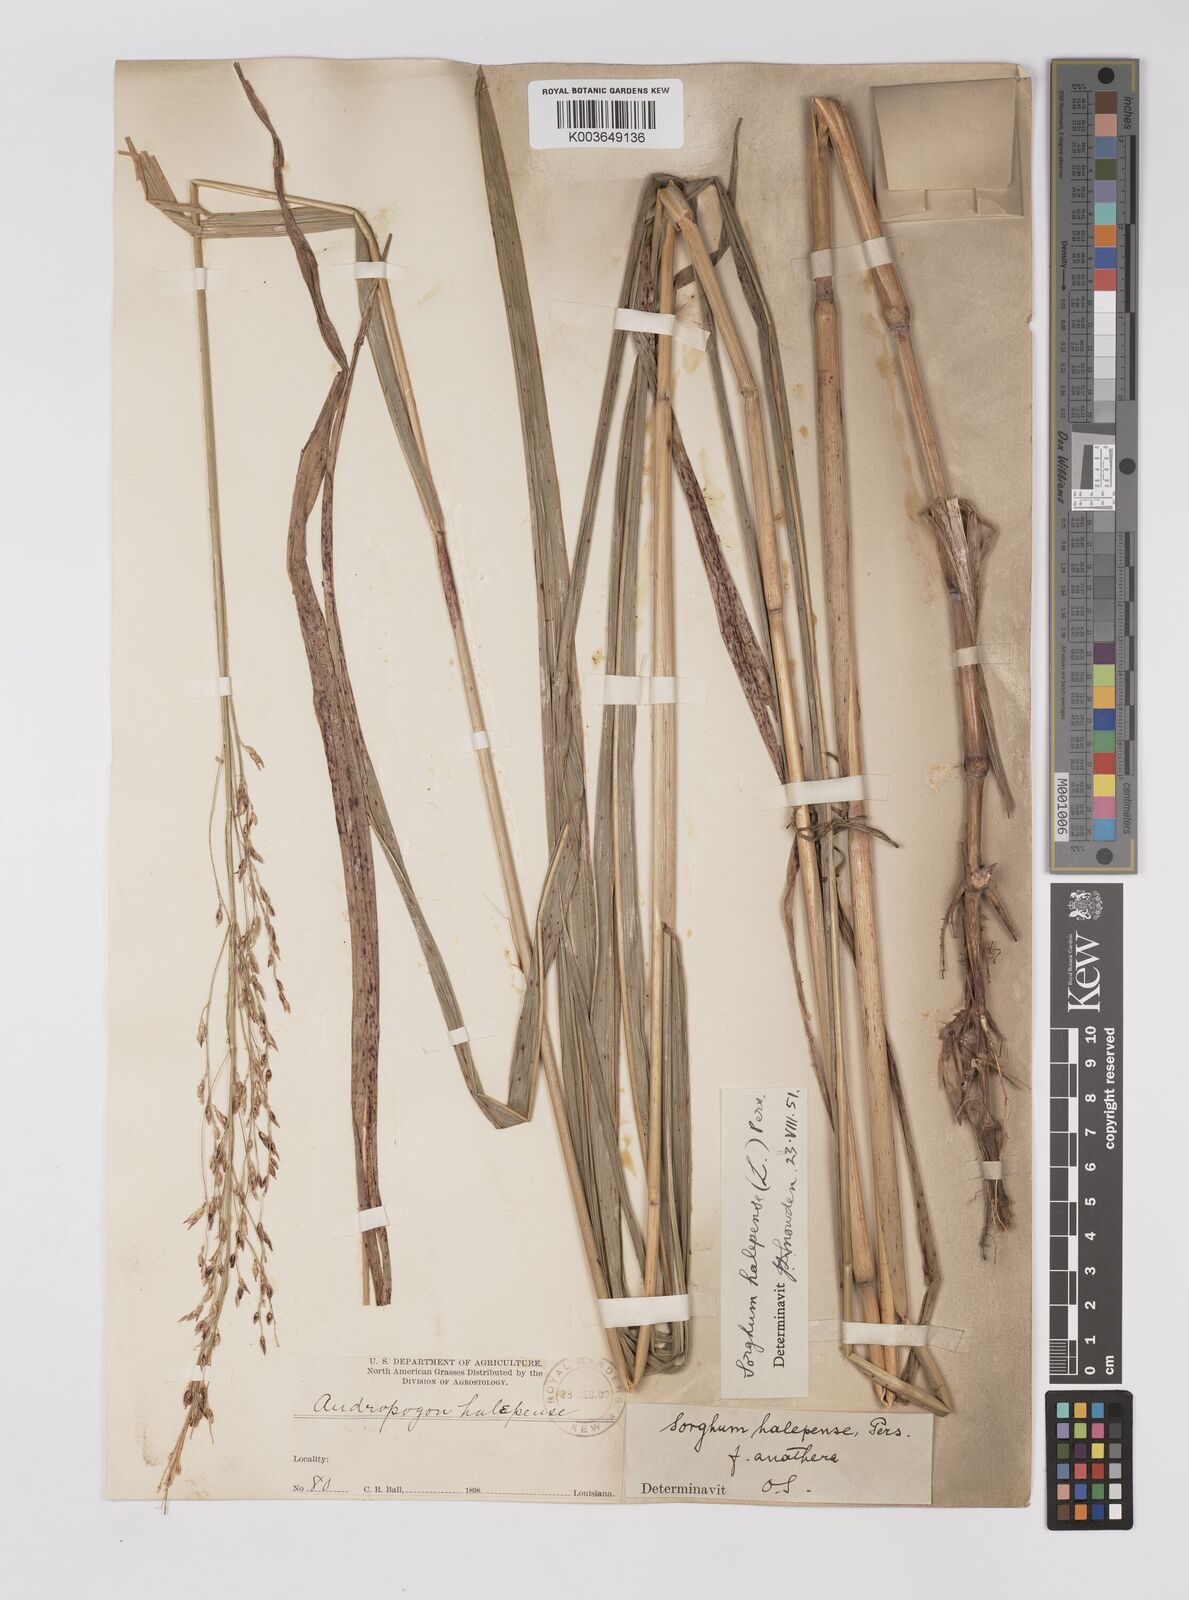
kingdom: Plantae
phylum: Tracheophyta
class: Liliopsida
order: Poales
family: Poaceae
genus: Sorghum
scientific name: Sorghum halepense
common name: Johnson-grass
